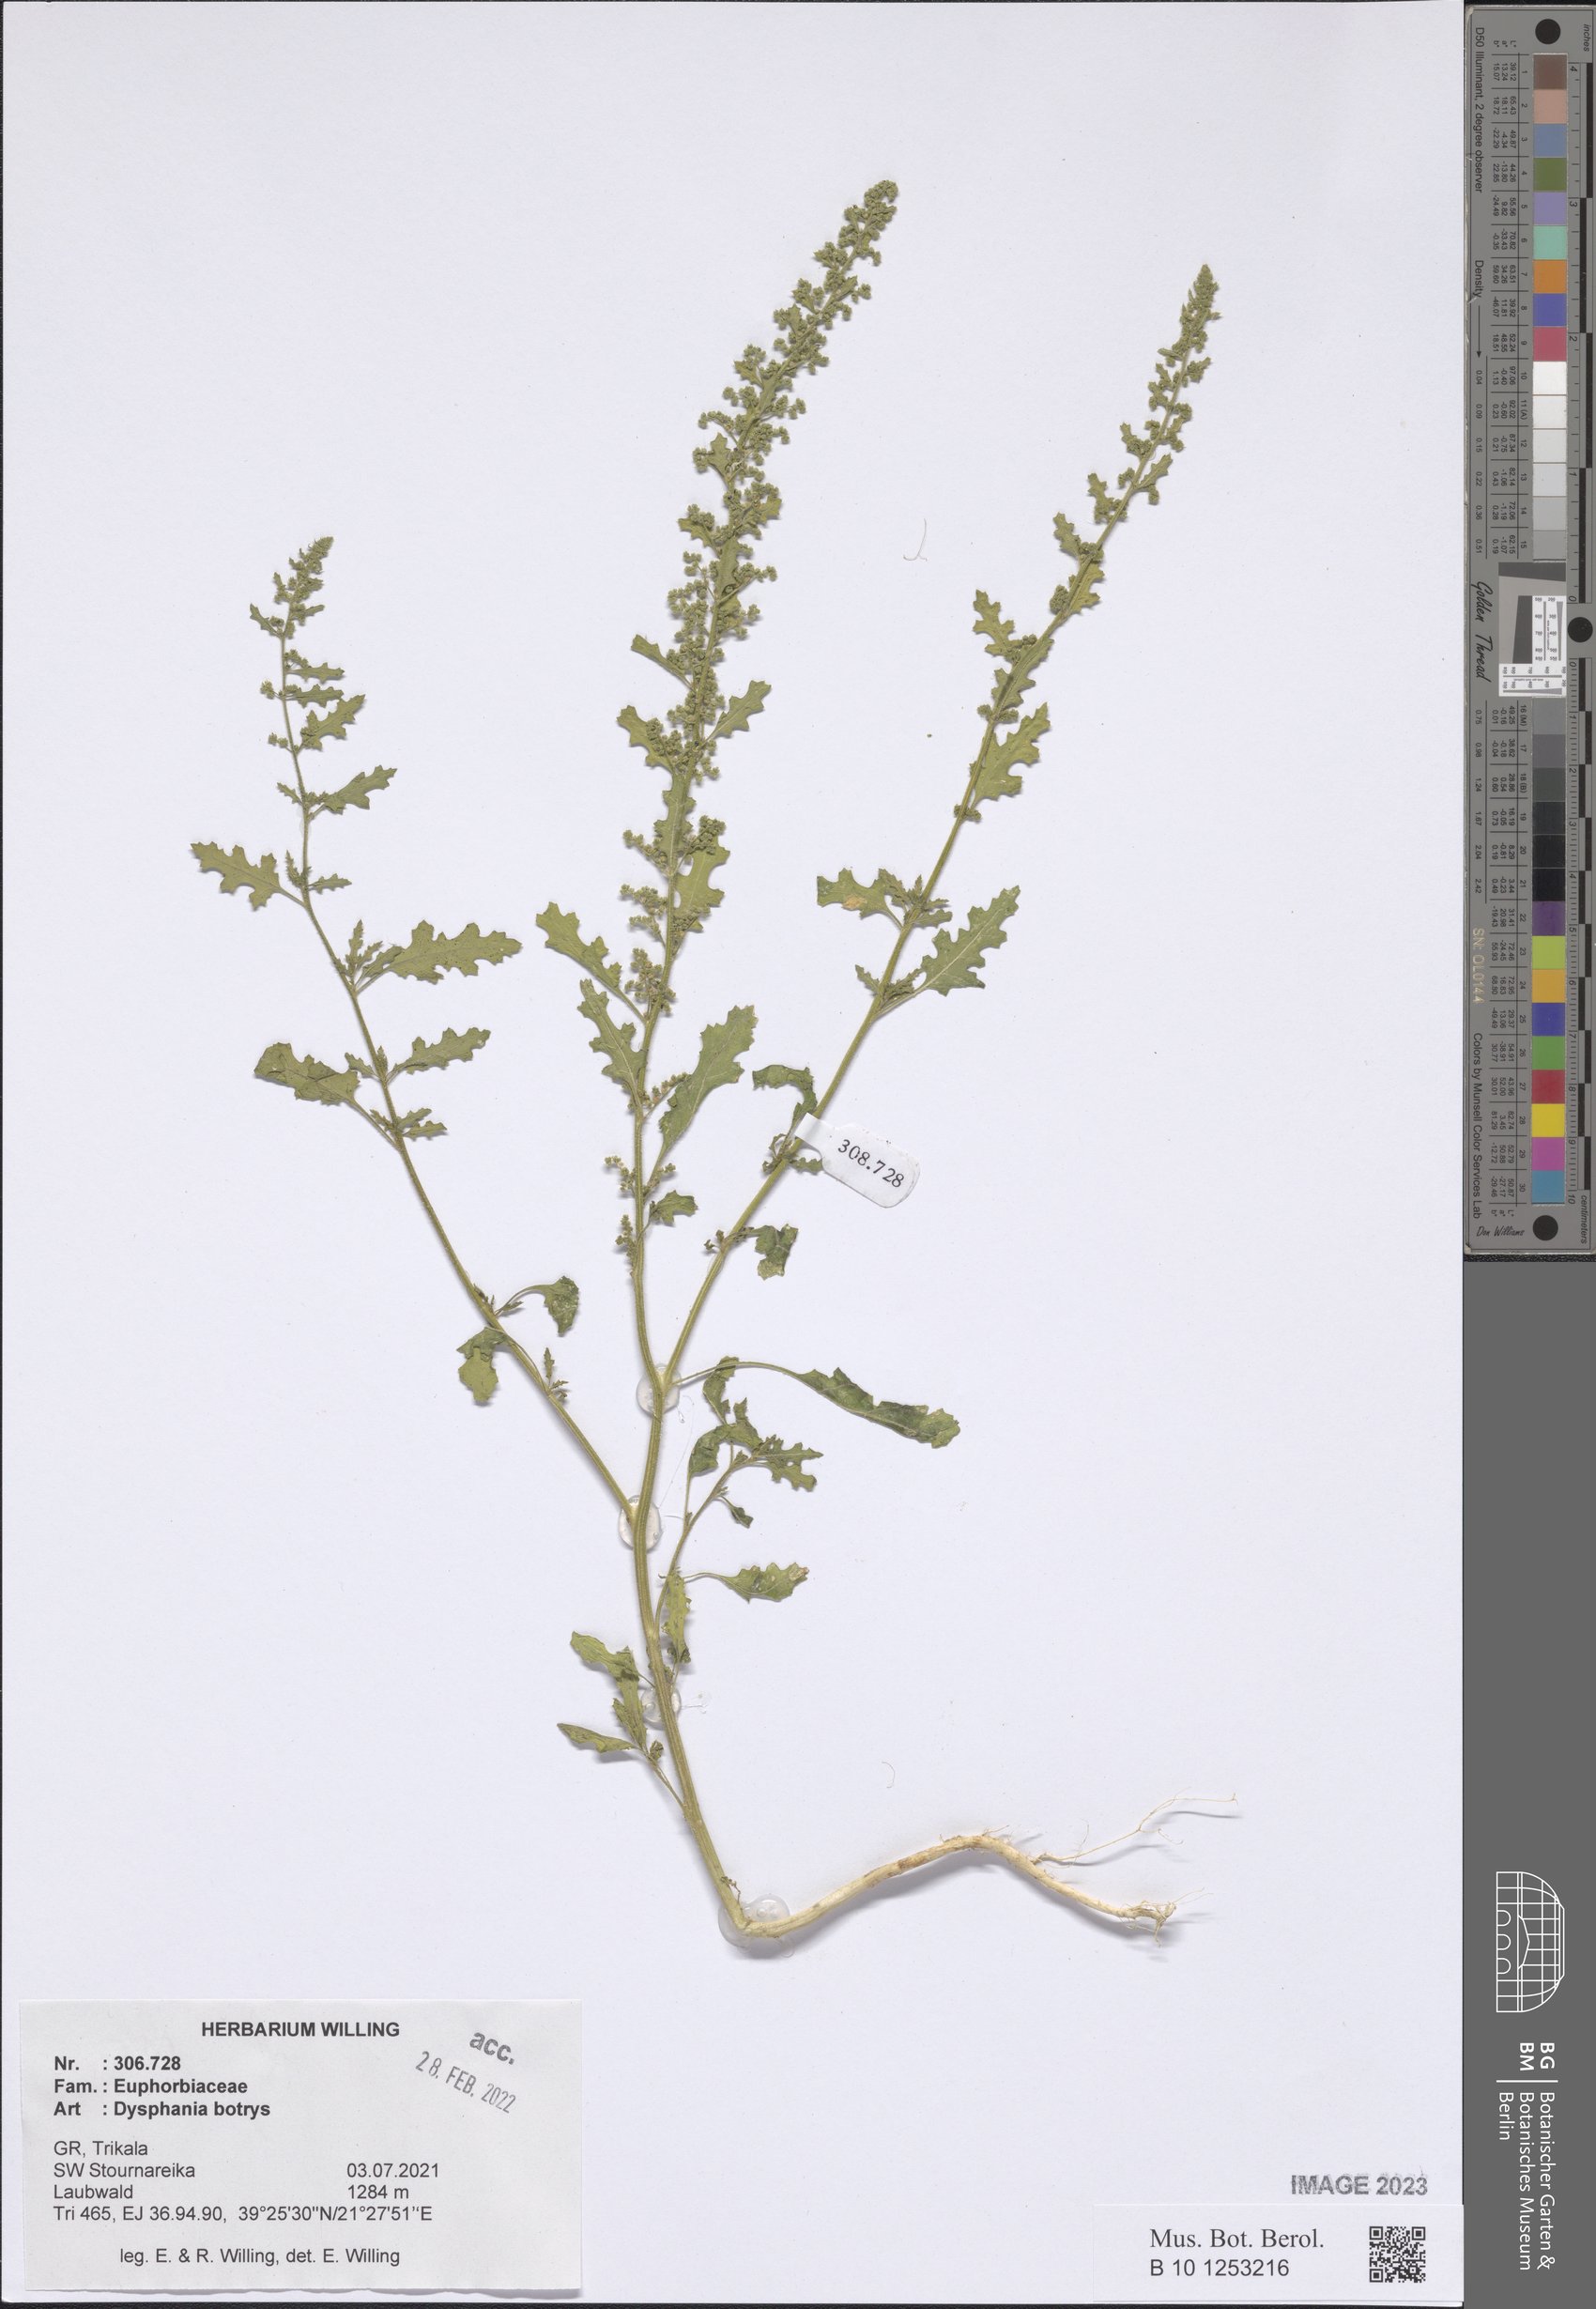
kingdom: Plantae
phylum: Tracheophyta
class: Magnoliopsida
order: Caryophyllales
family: Amaranthaceae
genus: Dysphania
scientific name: Dysphania botrys
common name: Feather-geranium
